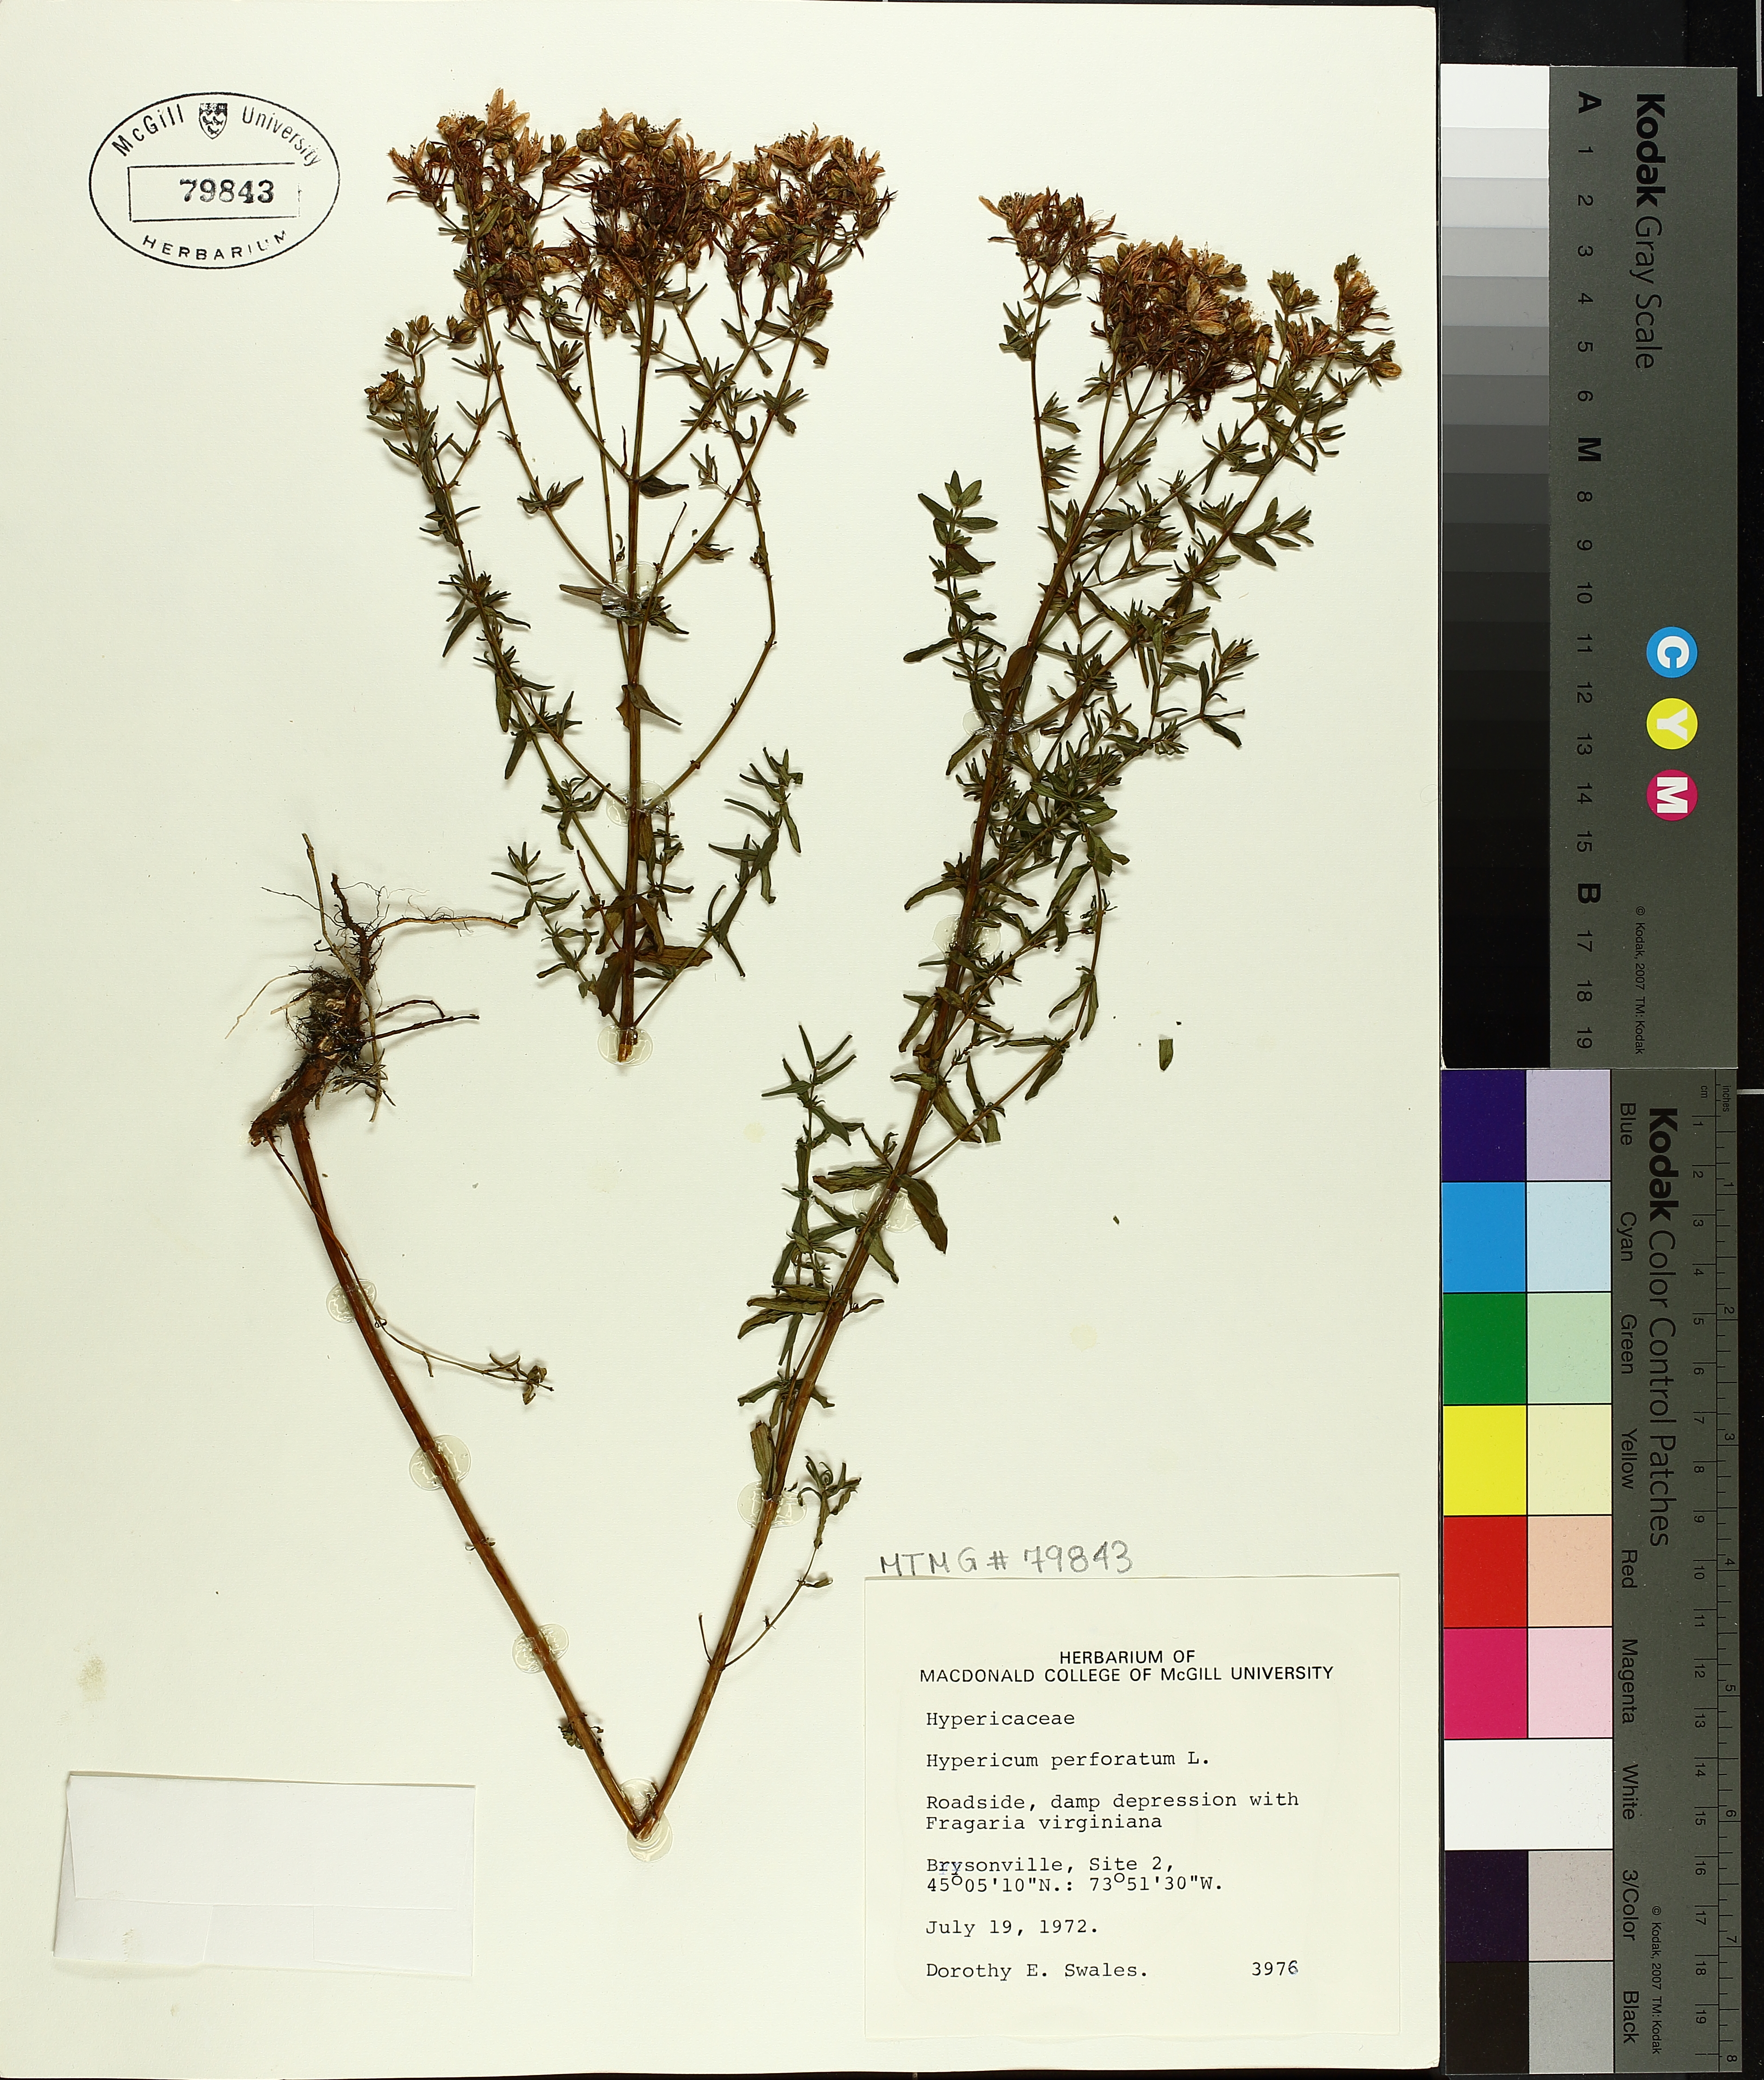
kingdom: Plantae
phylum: Tracheophyta
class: Magnoliopsida
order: Malpighiales
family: Hypericaceae
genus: Hypericum
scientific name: Hypericum perforatum
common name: Common st. johnswort
